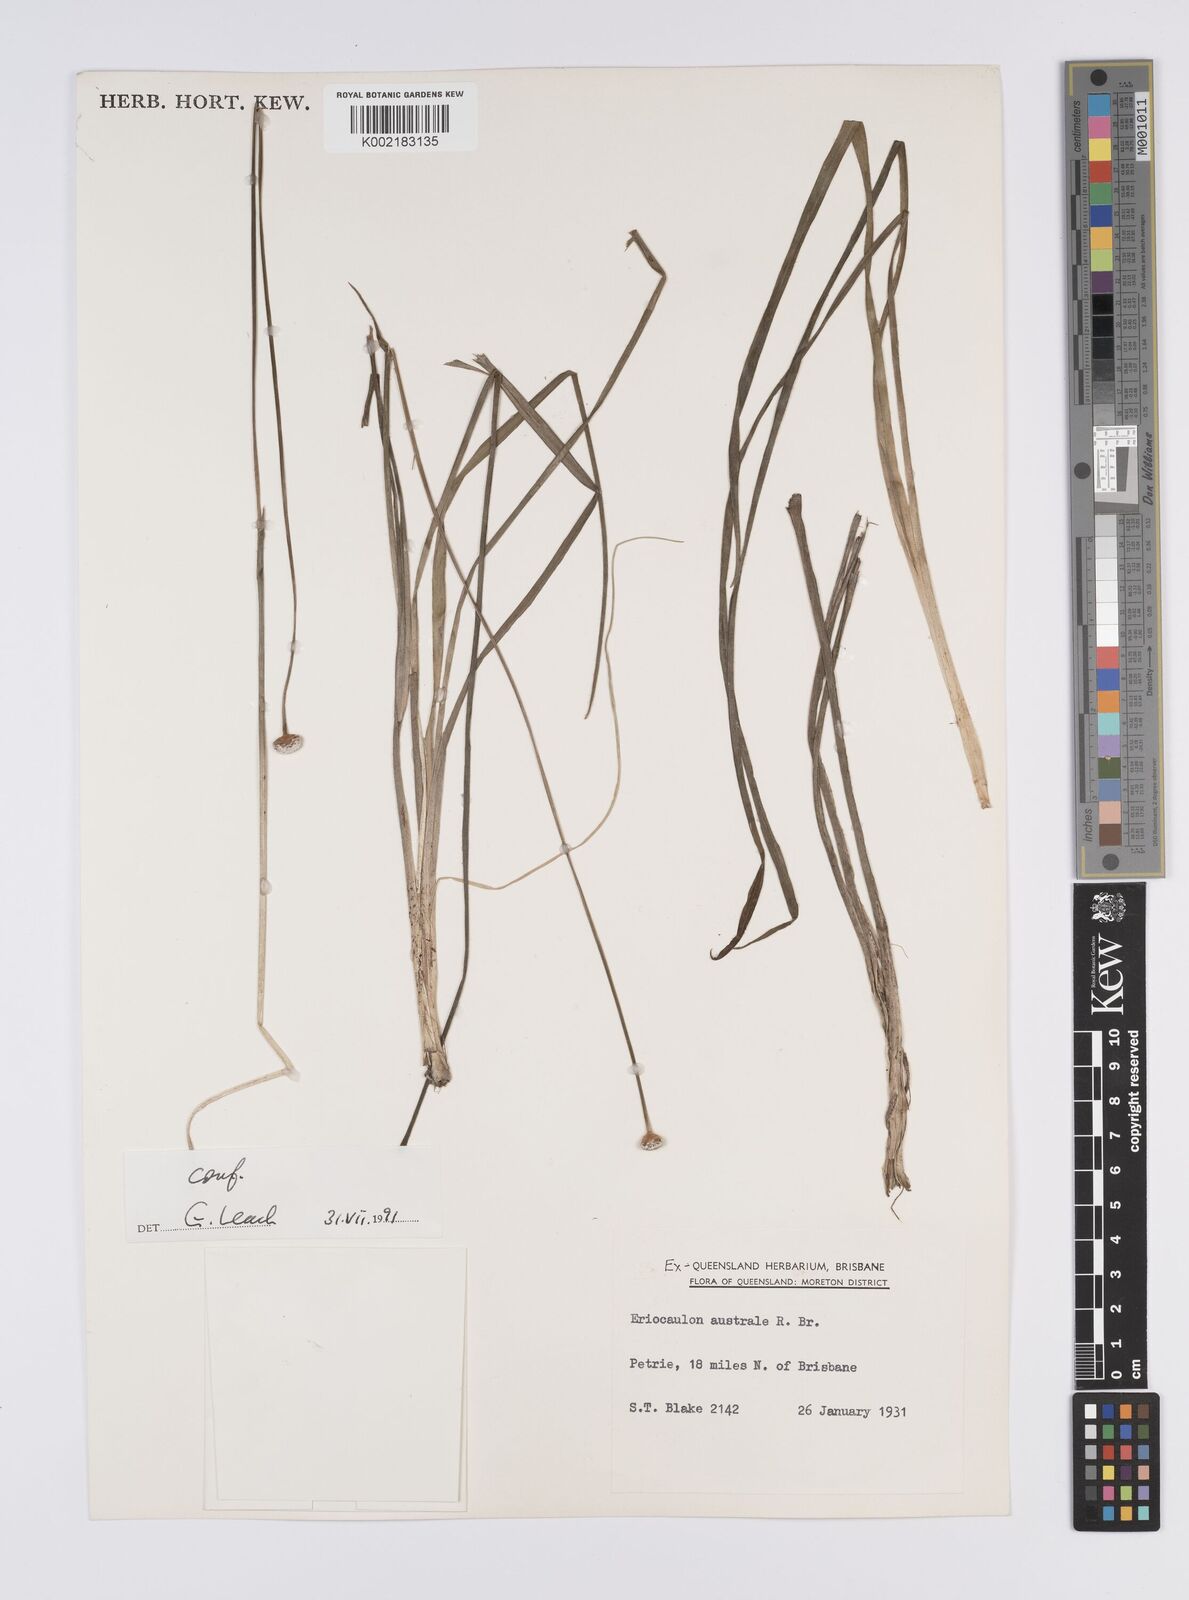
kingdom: Plantae
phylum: Tracheophyta
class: Liliopsida
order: Poales
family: Eriocaulaceae
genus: Eriocaulon
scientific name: Eriocaulon australe
